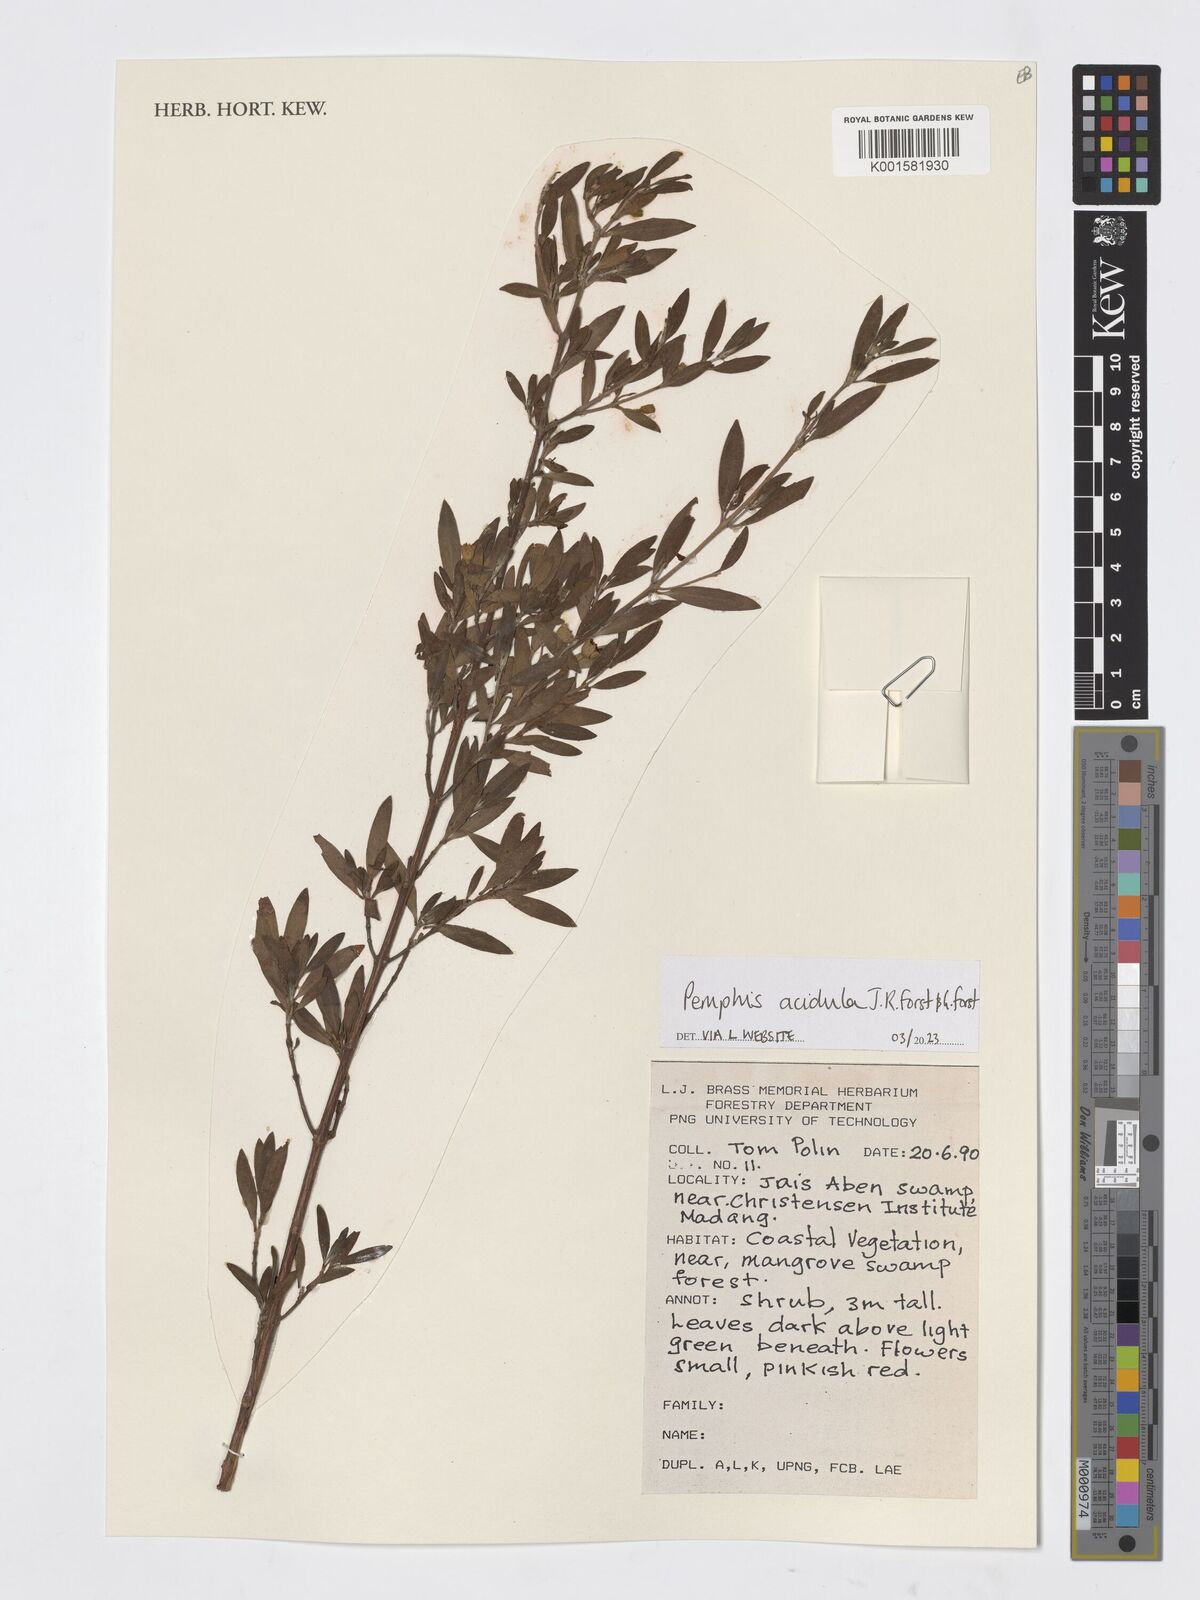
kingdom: Plantae
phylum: Tracheophyta
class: Magnoliopsida
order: Myrtales
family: Lythraceae
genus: Pemphis
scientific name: Pemphis acidula
